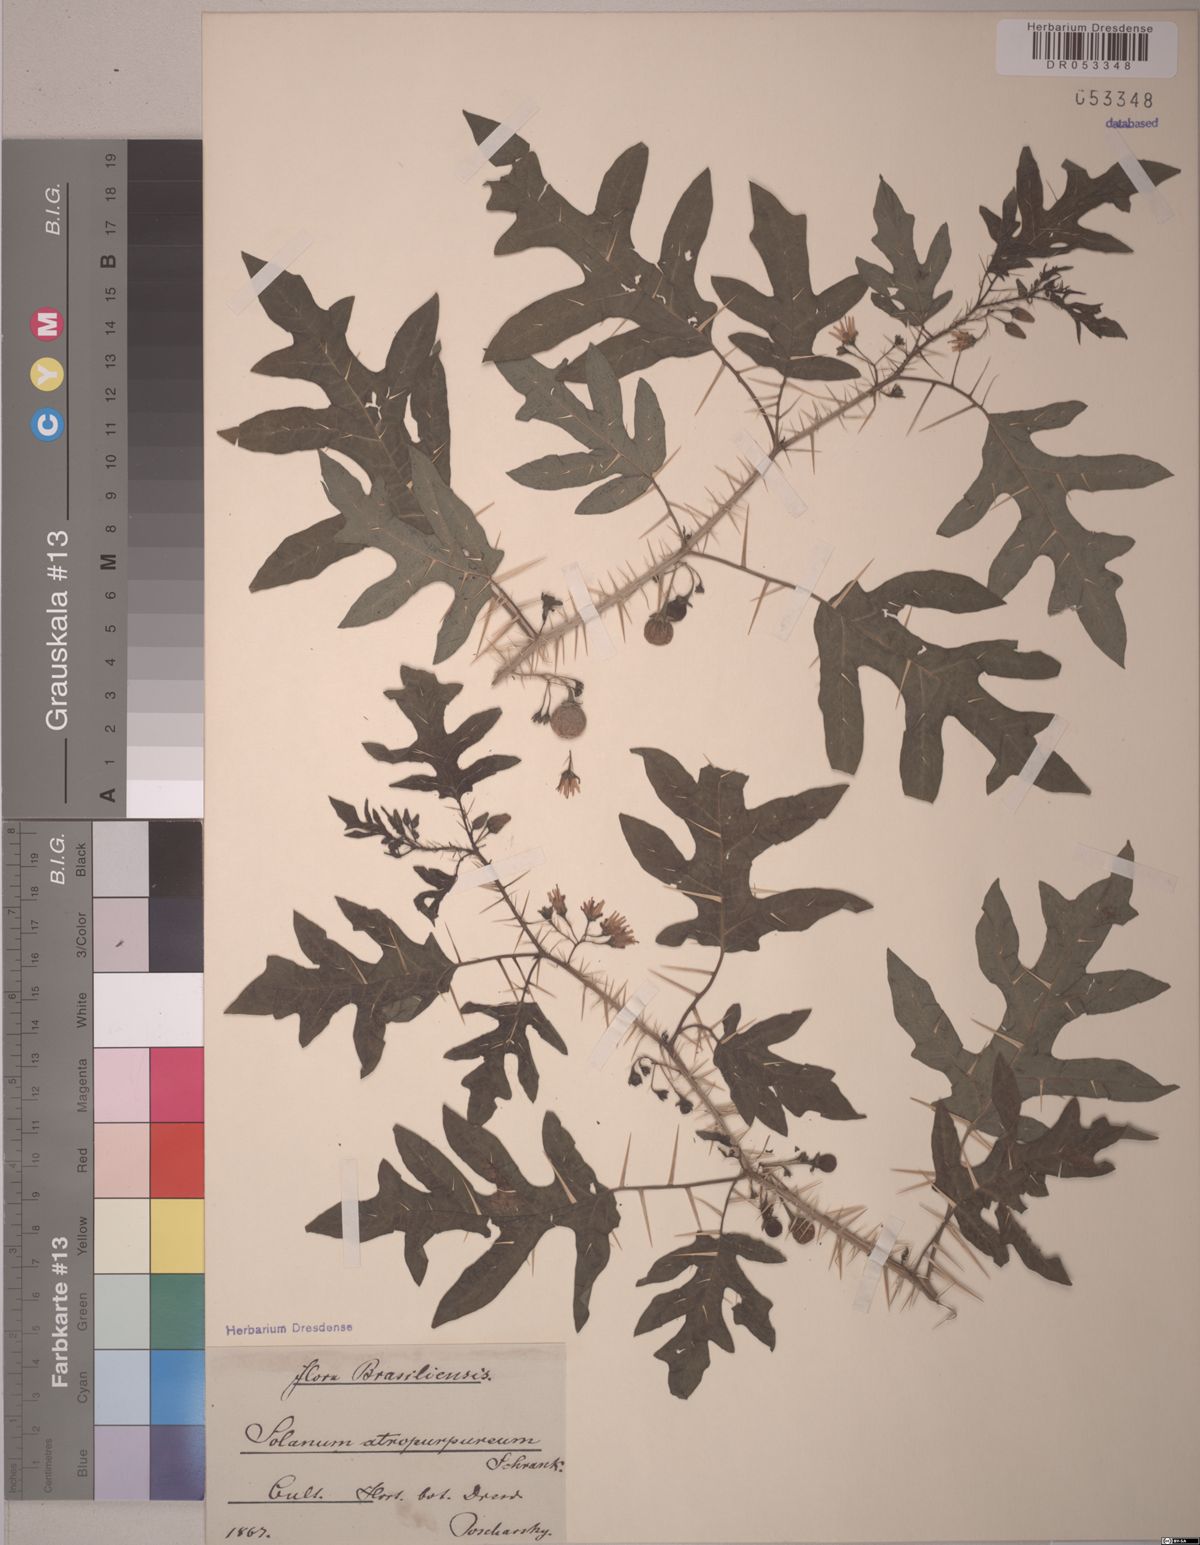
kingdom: Plantae
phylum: Tracheophyta
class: Magnoliopsida
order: Solanales
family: Solanaceae
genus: Solanum
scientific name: Solanum atropurpureum
